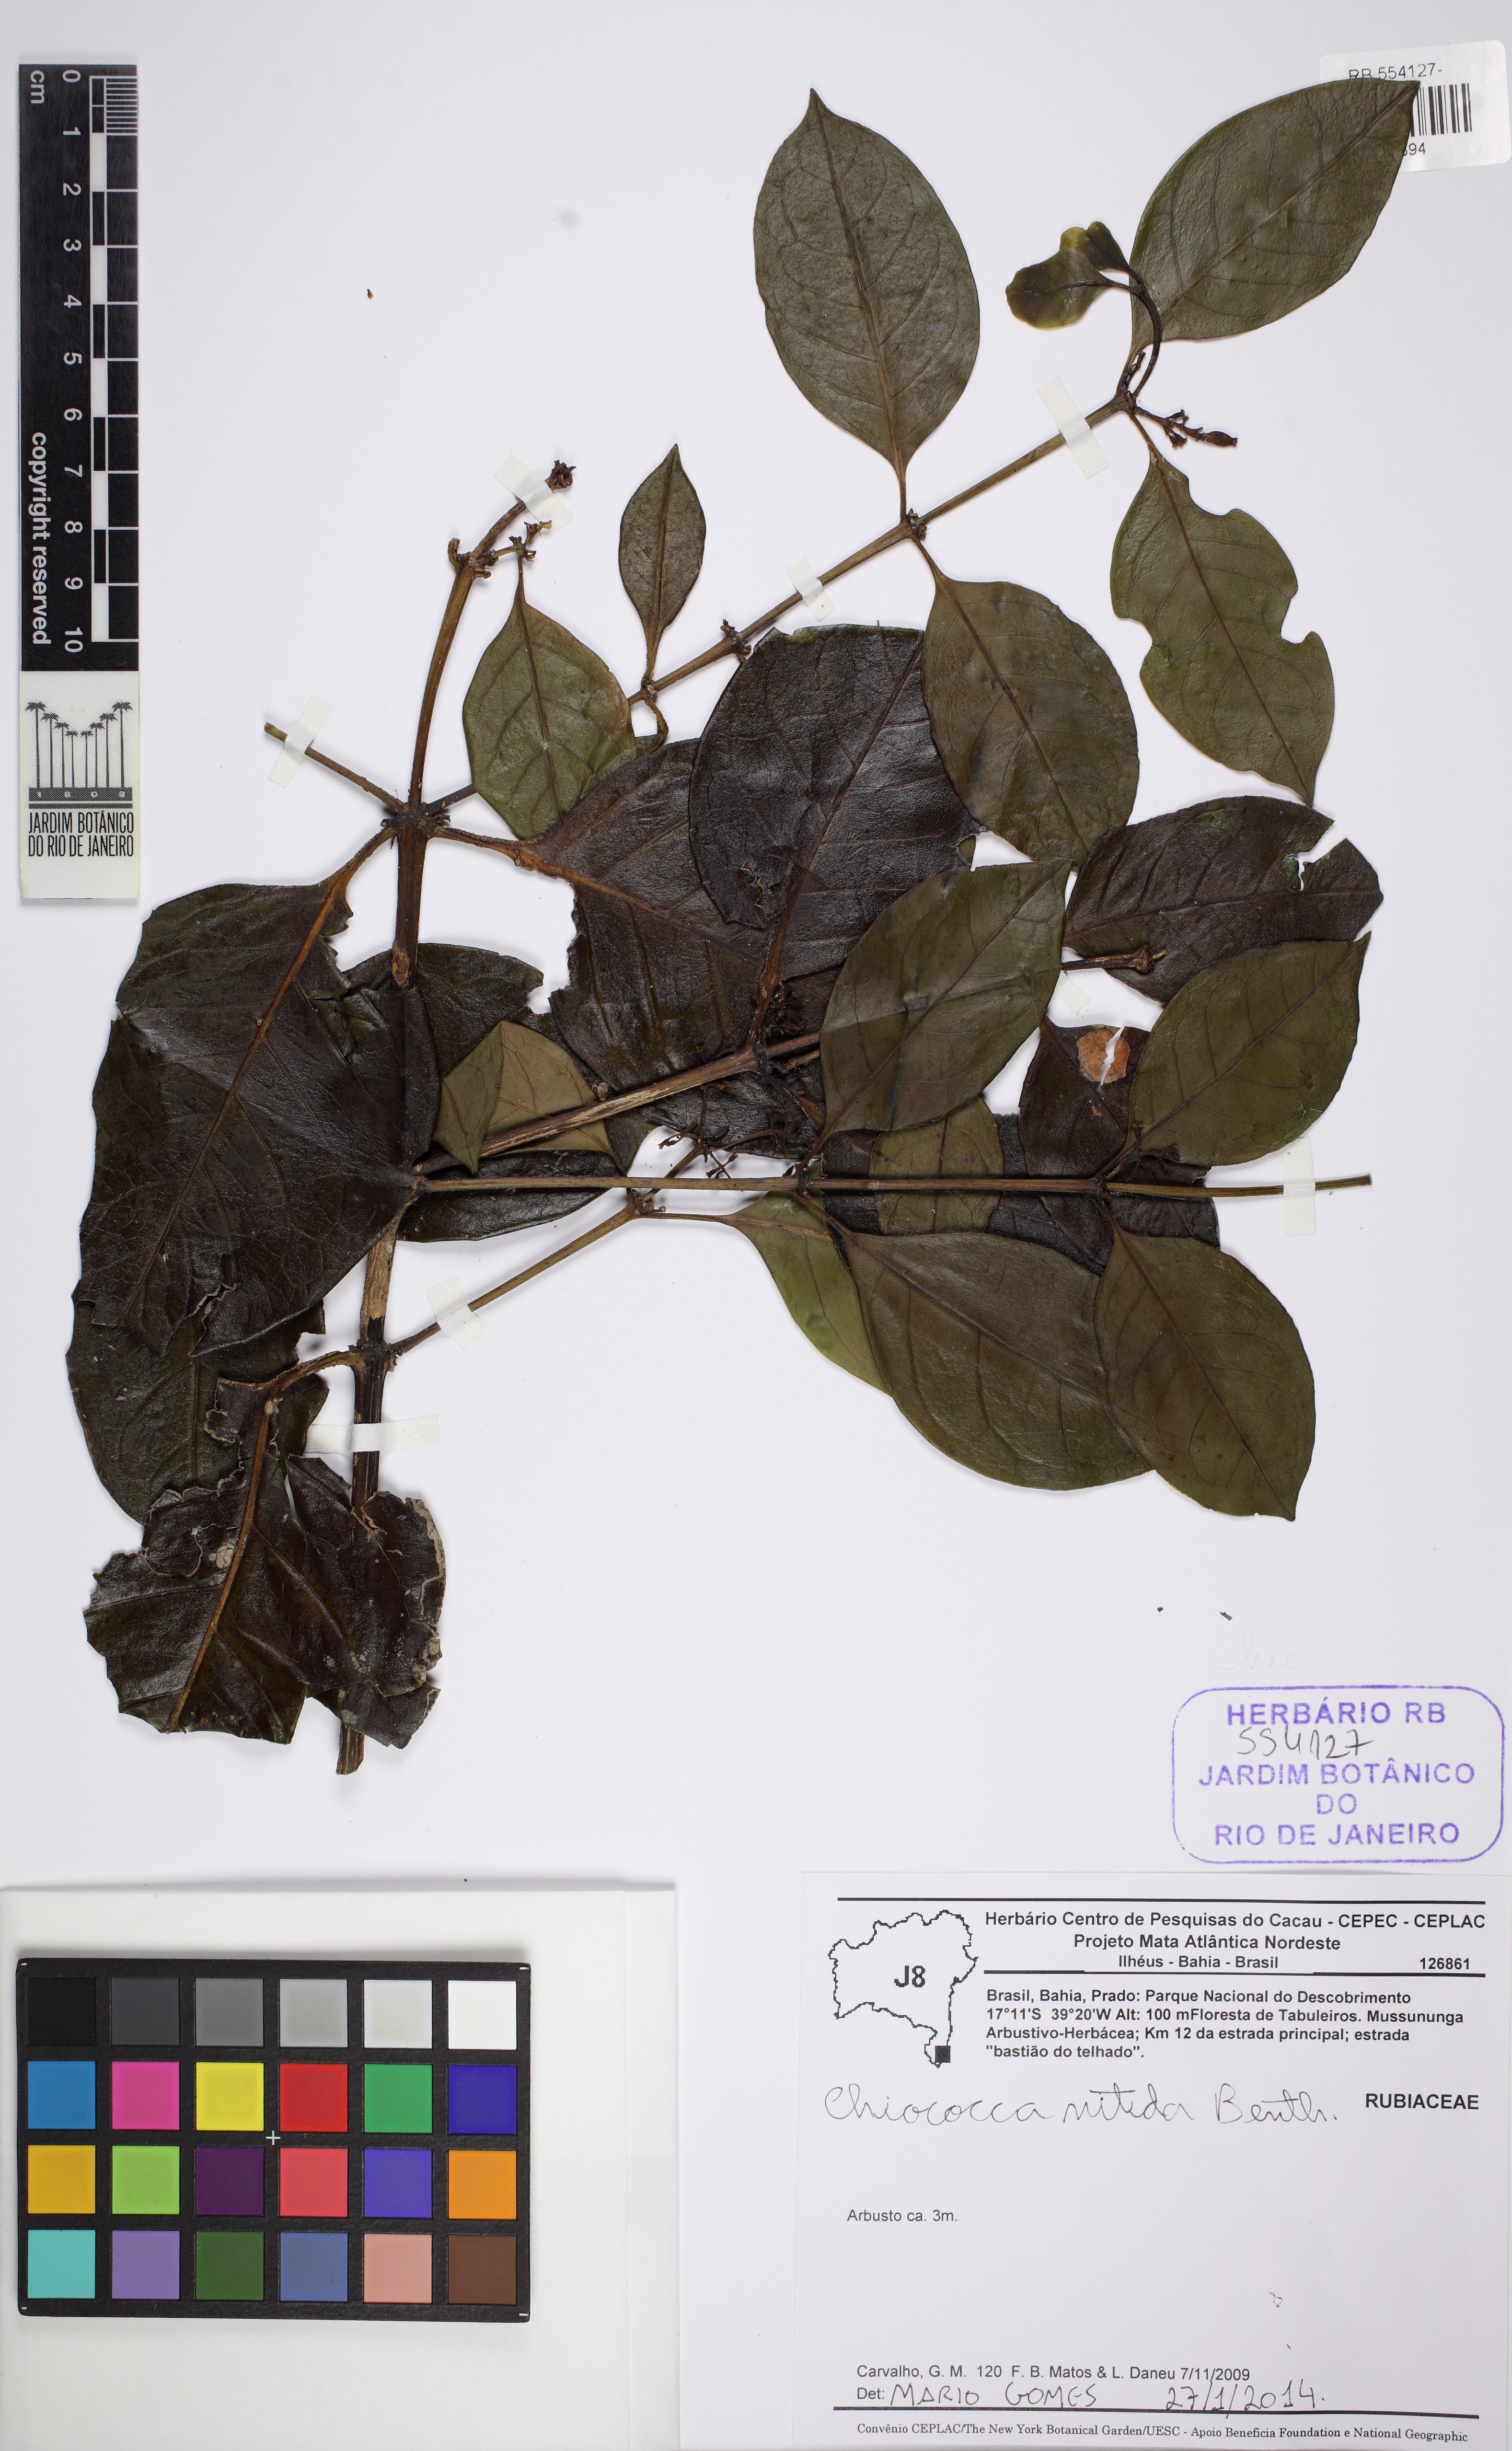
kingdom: Plantae
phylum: Tracheophyta
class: Magnoliopsida
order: Gentianales
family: Rubiaceae
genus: Chiococca
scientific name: Chiococca nitida
